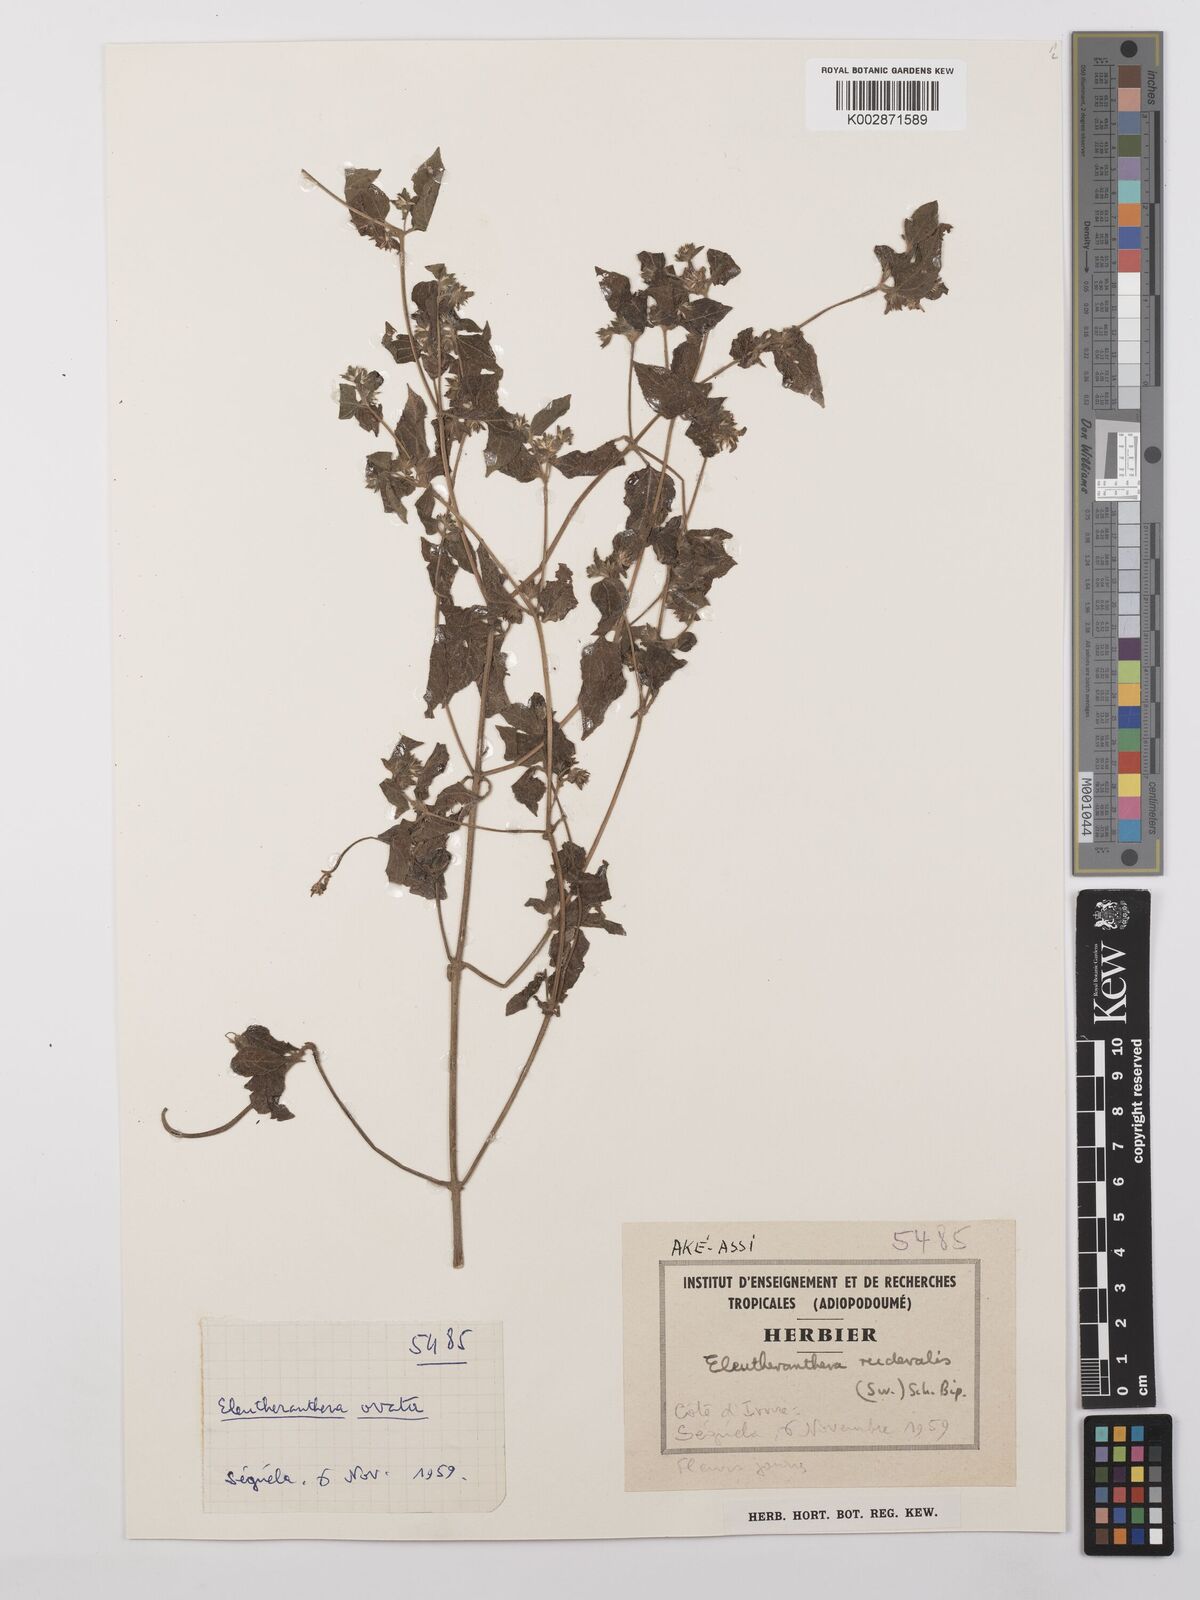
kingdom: Plantae
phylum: Tracheophyta
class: Magnoliopsida
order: Asterales
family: Asteraceae
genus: Eleutheranthera
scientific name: Eleutheranthera ruderalis
